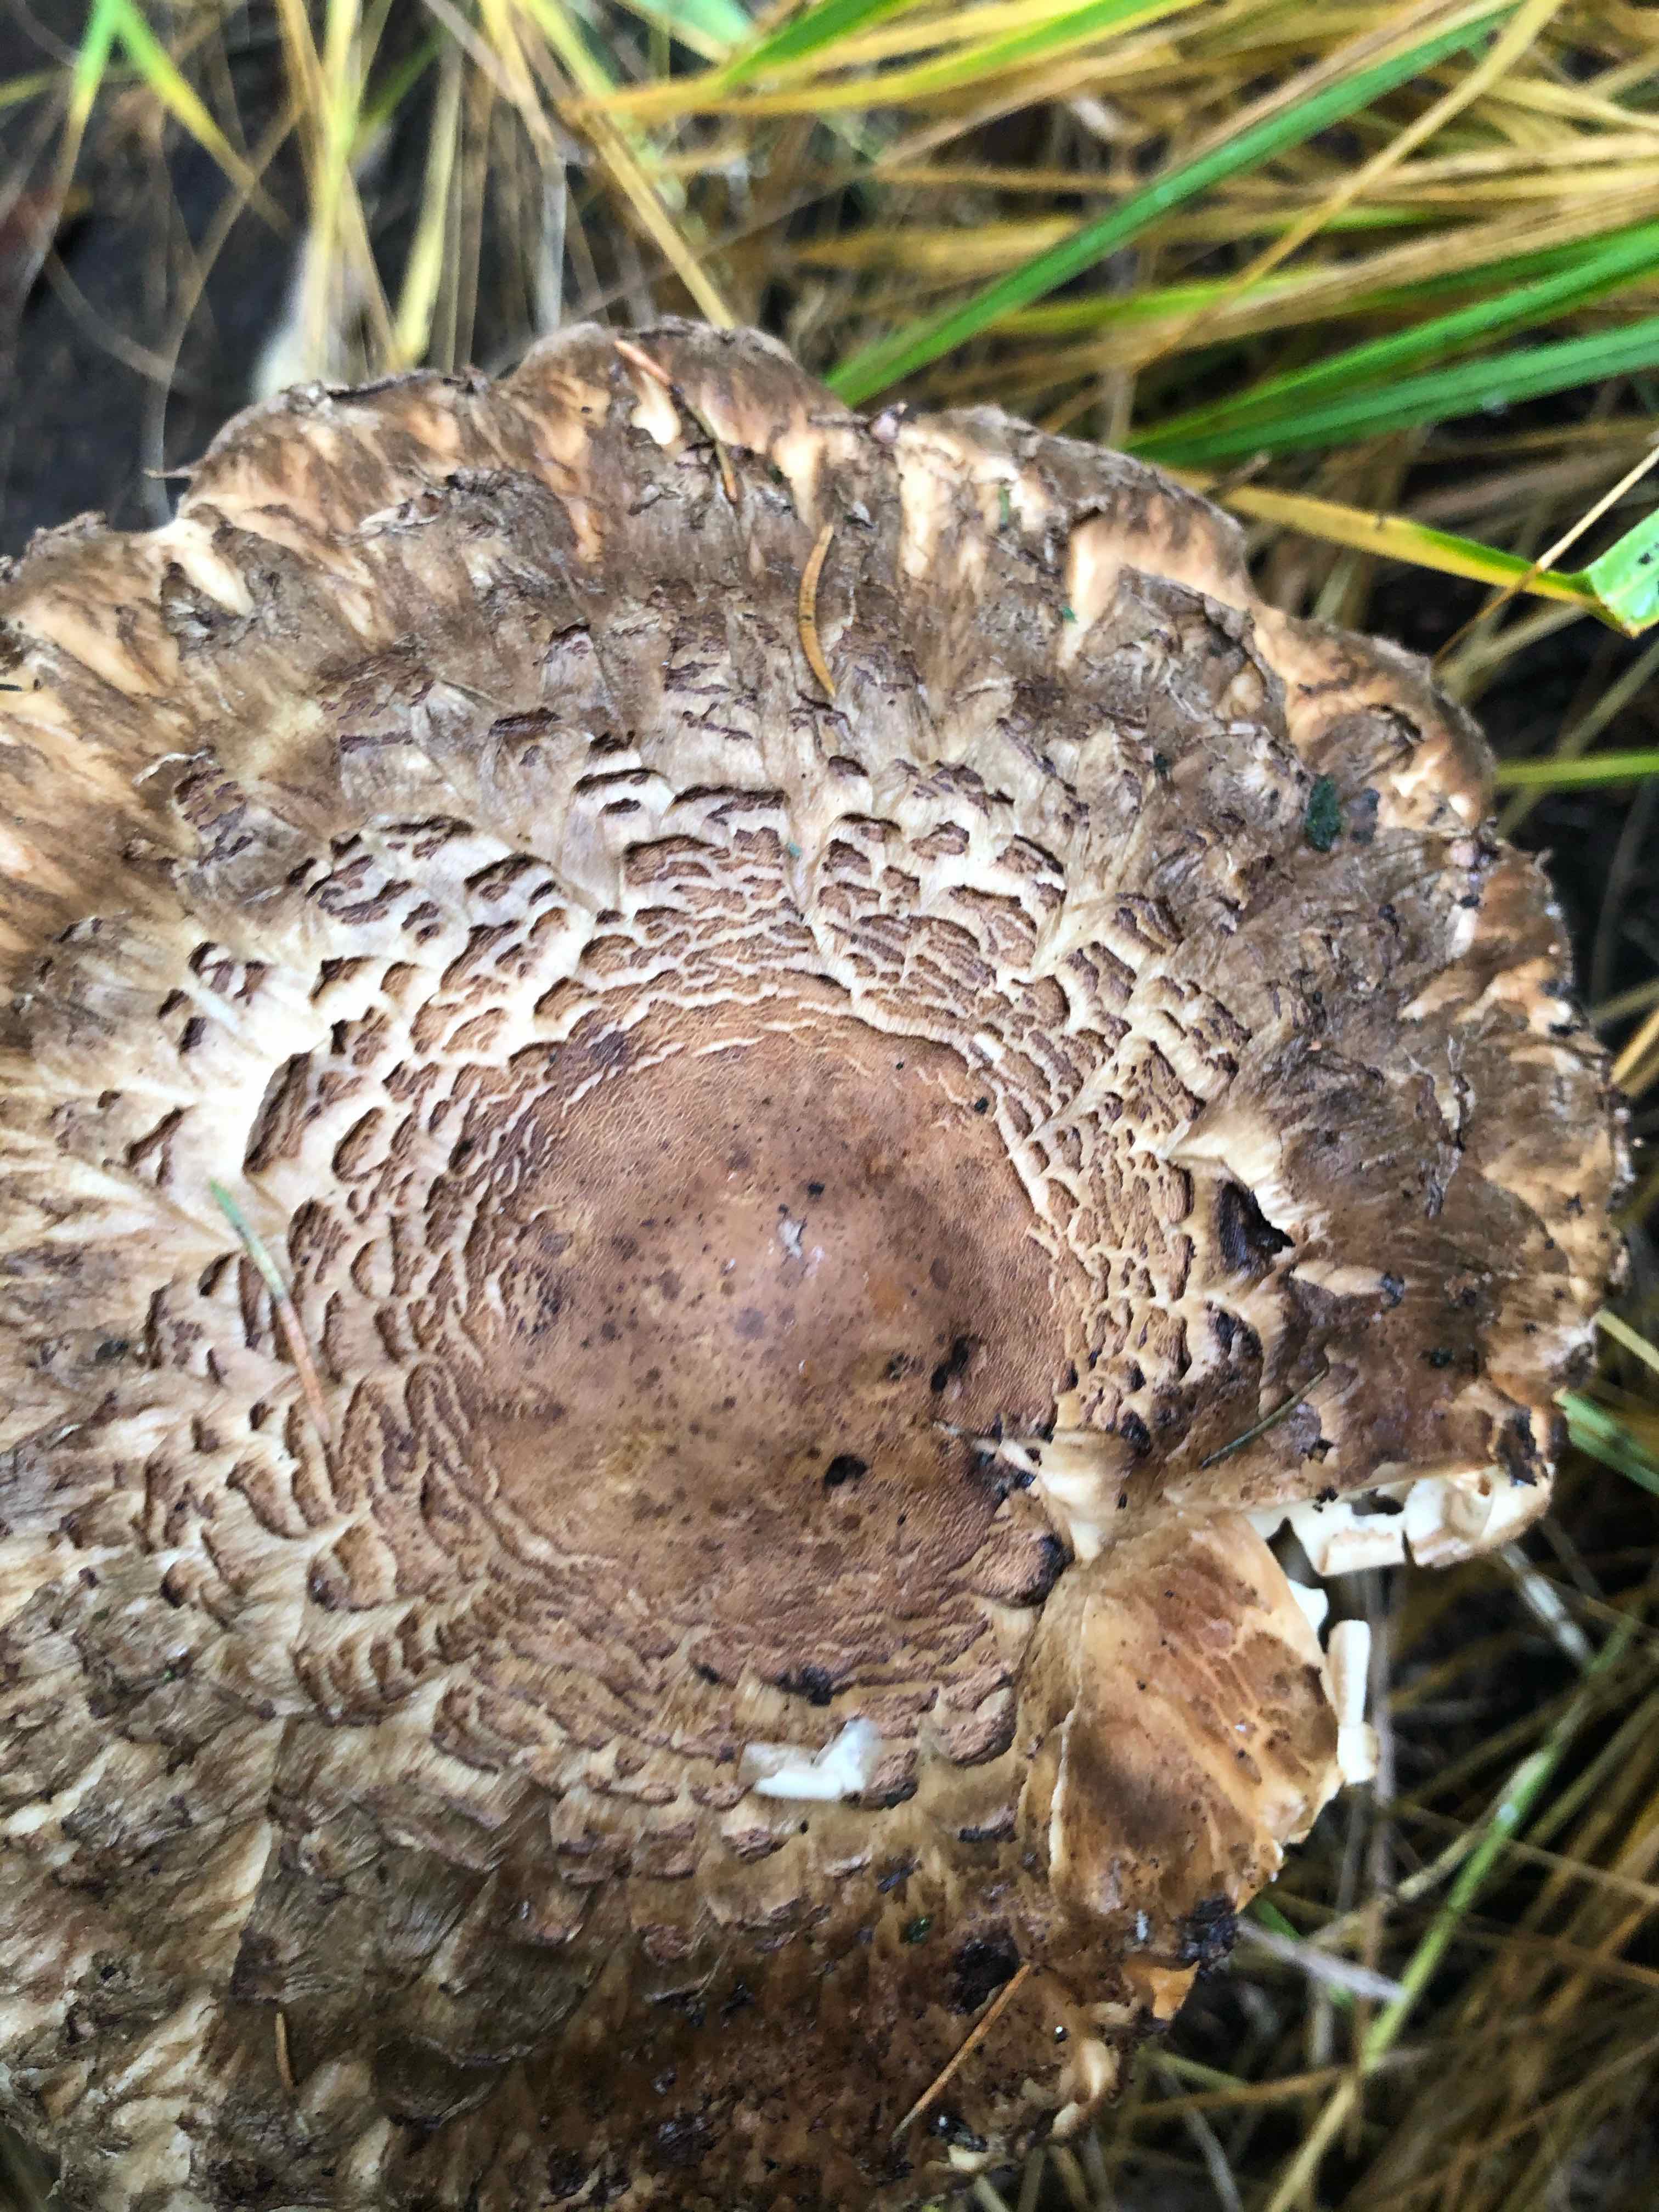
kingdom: Fungi
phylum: Basidiomycota
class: Agaricomycetes
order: Agaricales
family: Agaricaceae
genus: Chlorophyllum
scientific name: Chlorophyllum olivieri
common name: almindelig rabarberhat
